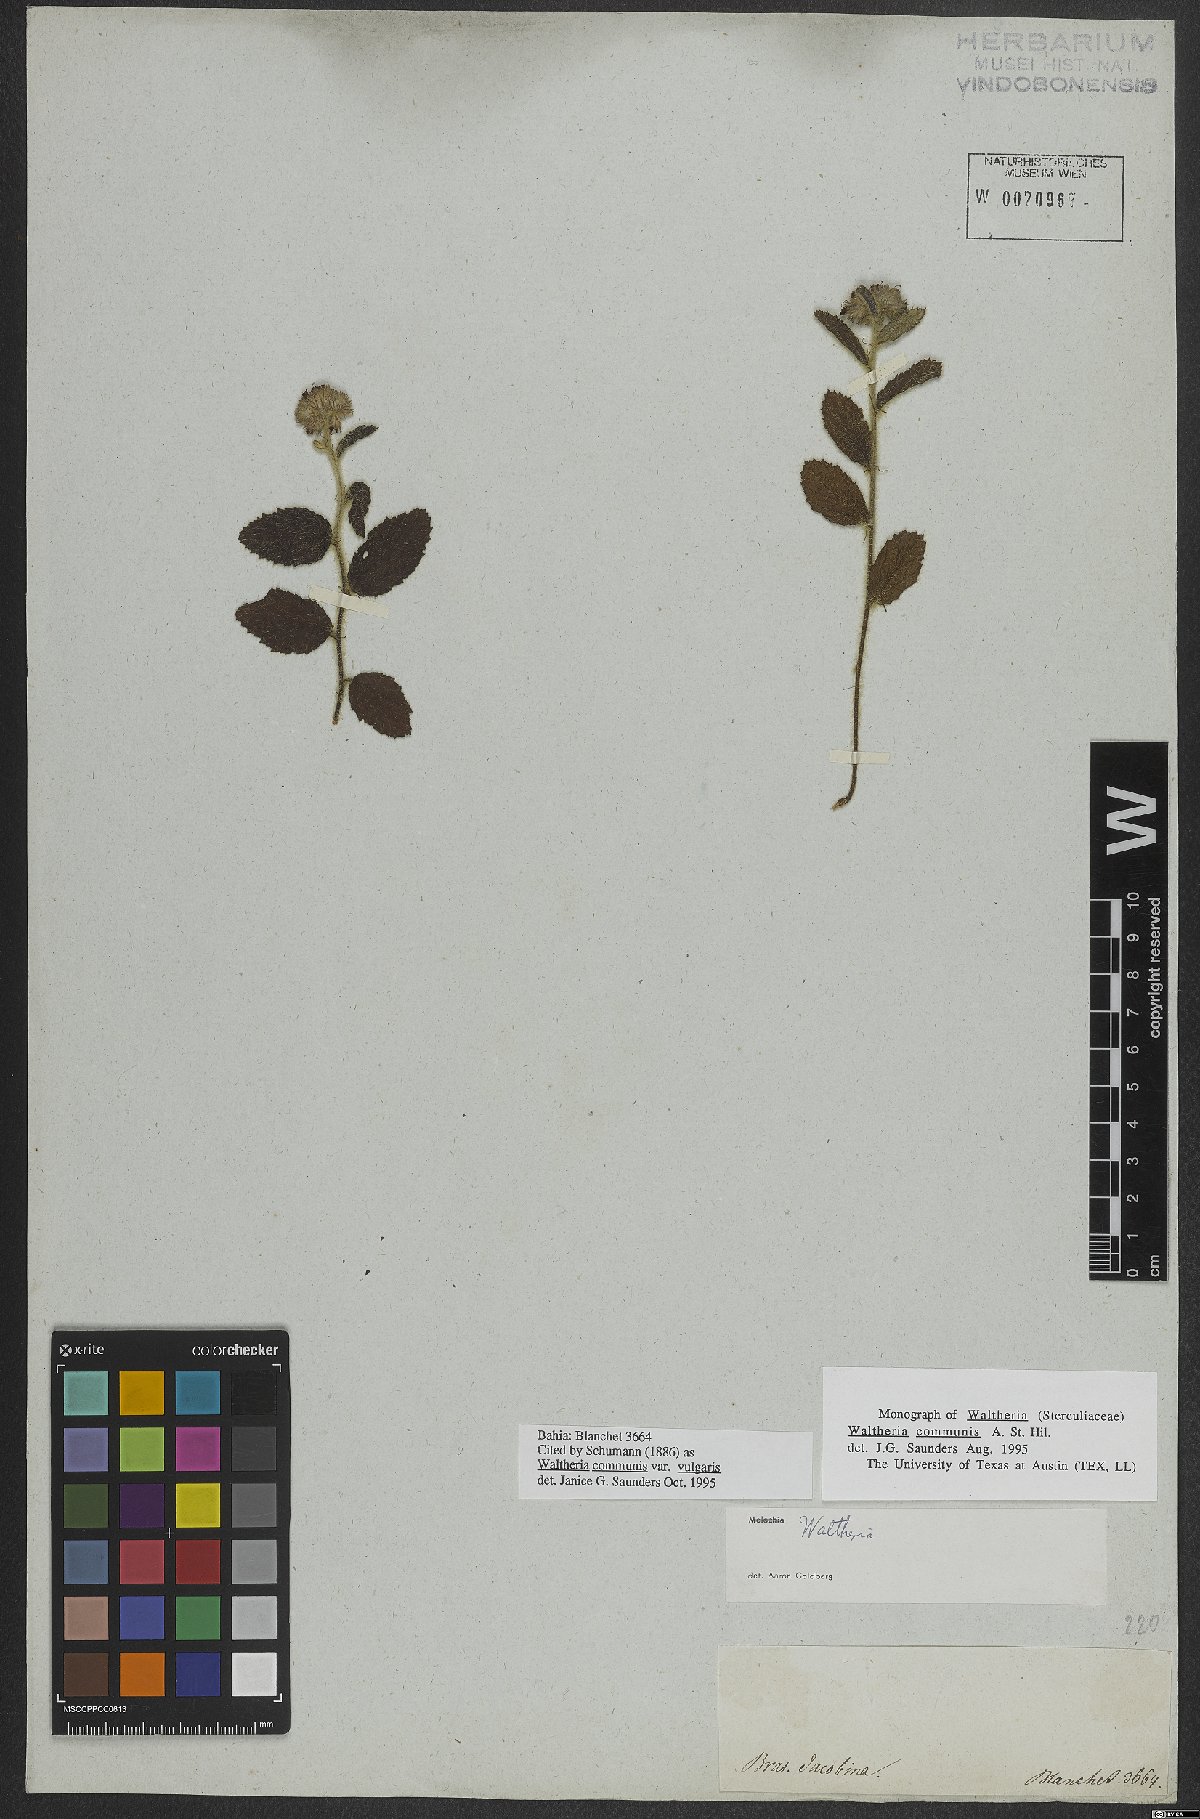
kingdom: Plantae
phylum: Tracheophyta
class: Magnoliopsida
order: Malvales
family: Malvaceae
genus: Waltheria
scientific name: Waltheria communis
